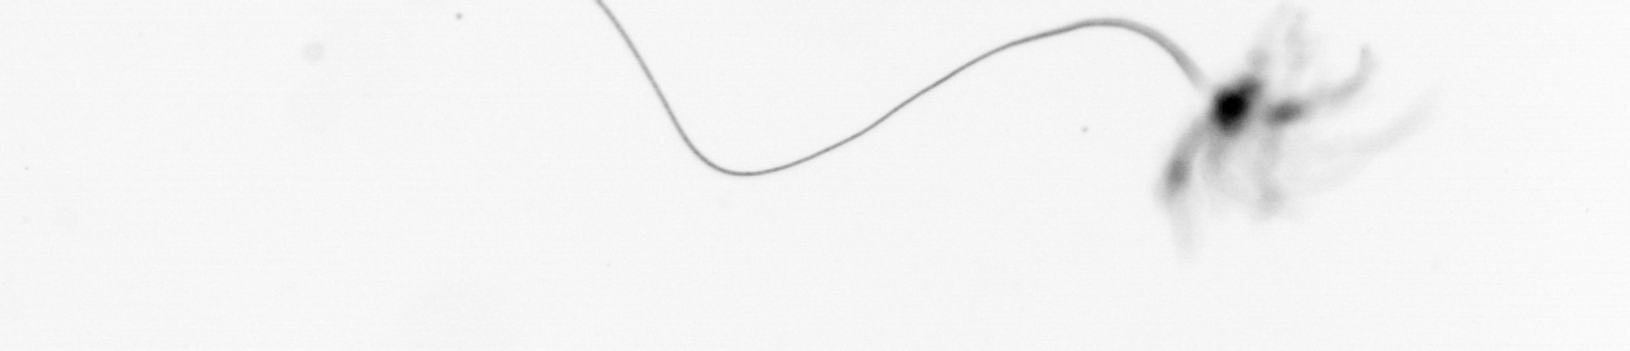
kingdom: Chromista
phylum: Ochrophyta
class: Bacillariophyceae
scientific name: Bacillariophyceae
